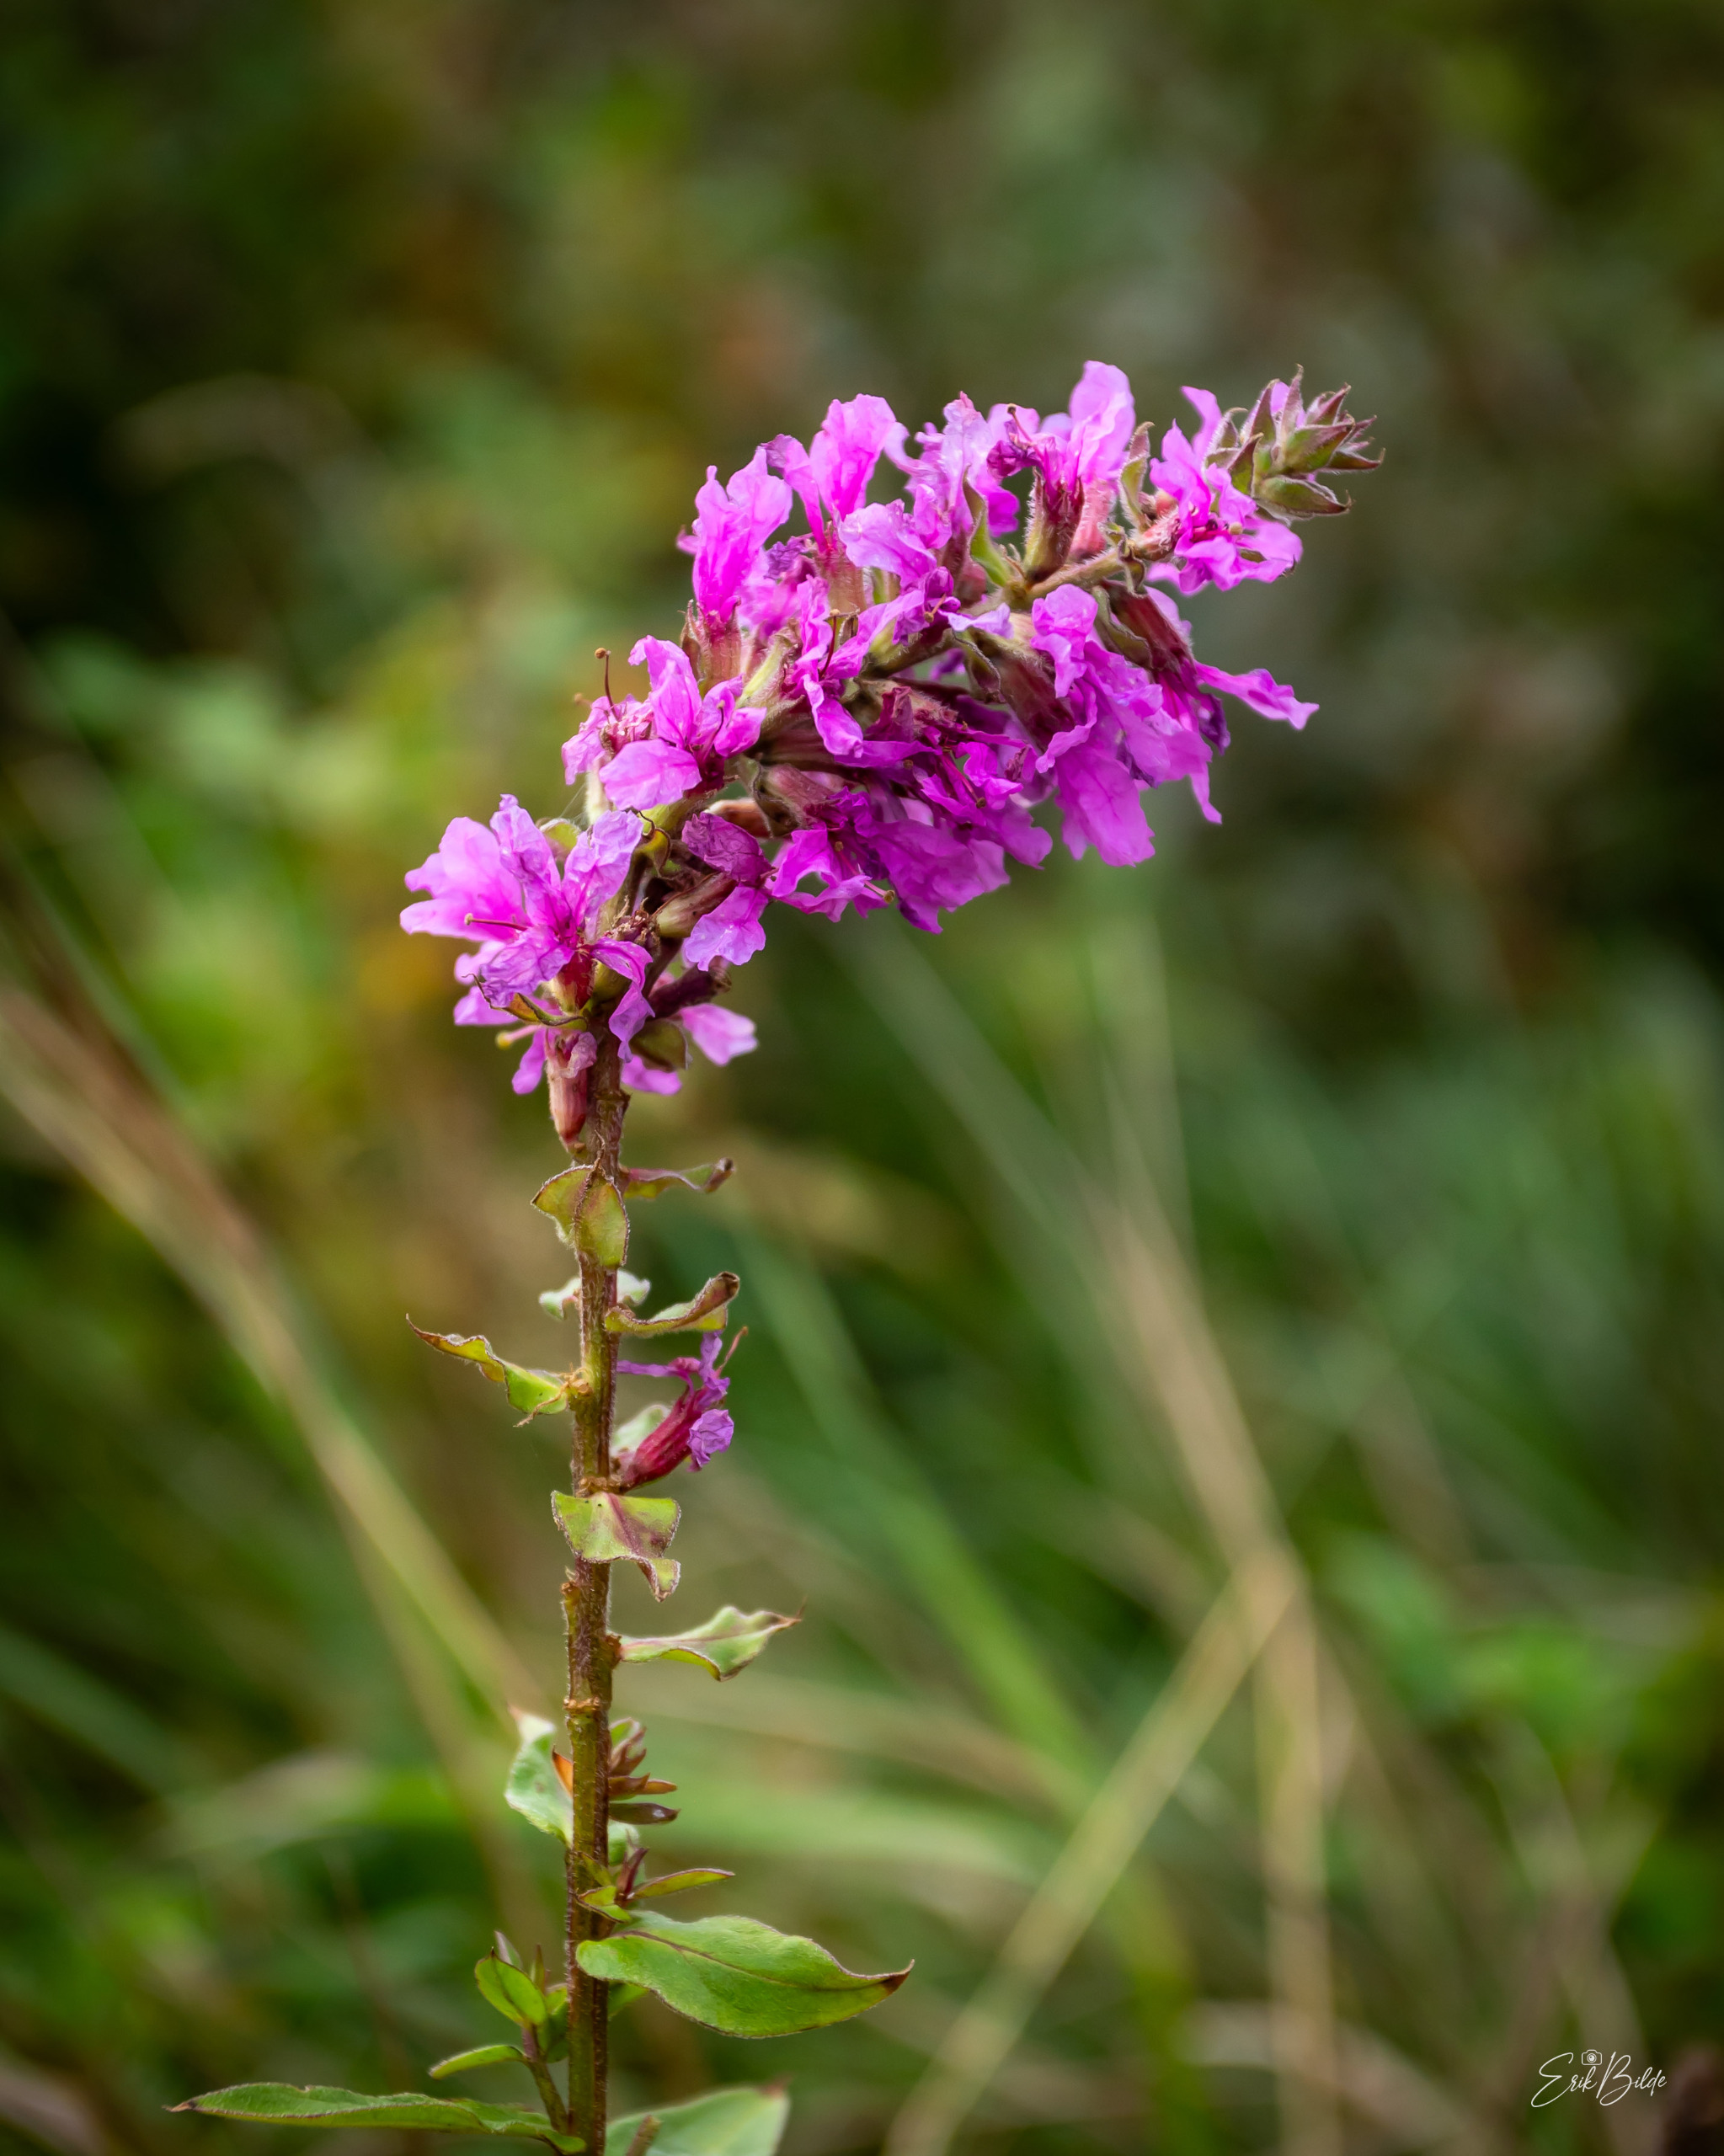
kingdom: Plantae
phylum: Tracheophyta
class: Magnoliopsida
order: Myrtales
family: Lythraceae
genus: Lythrum
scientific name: Lythrum salicaria
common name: Kattehale
